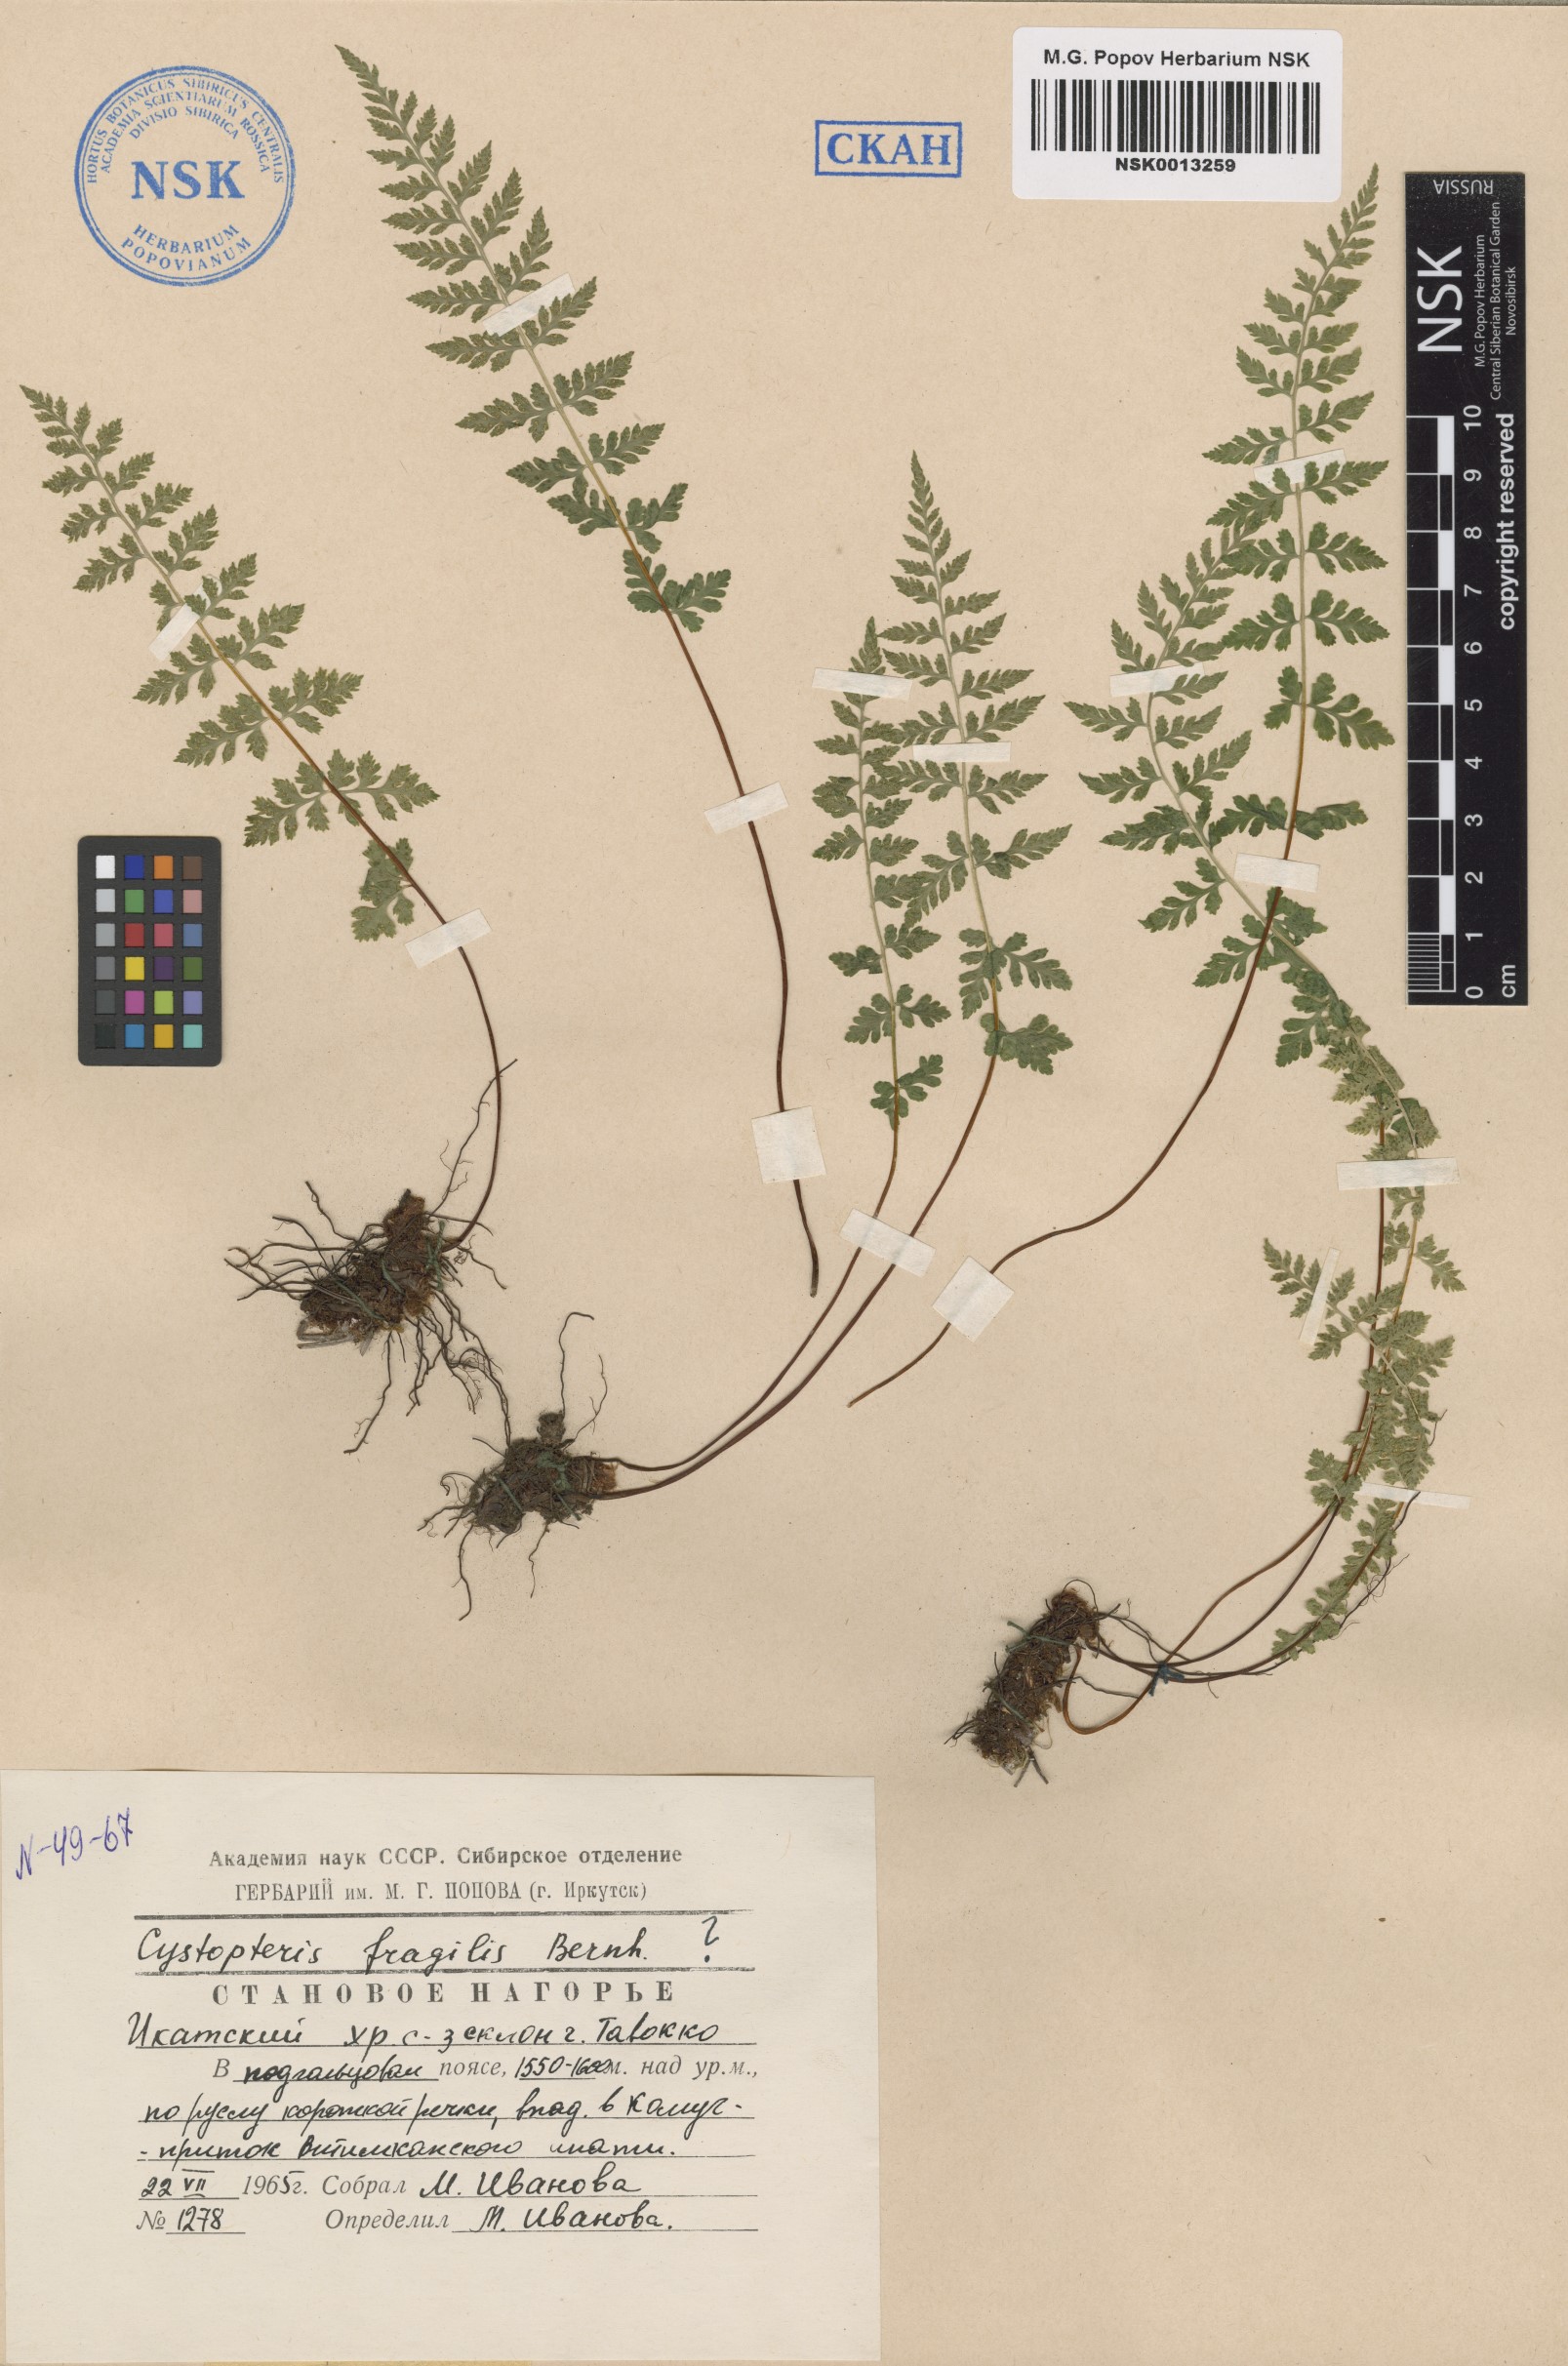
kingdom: Plantae
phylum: Tracheophyta
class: Polypodiopsida
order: Polypodiales
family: Cystopteridaceae
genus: Cystopteris
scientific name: Cystopteris fragilis
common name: Brittle bladder fern
